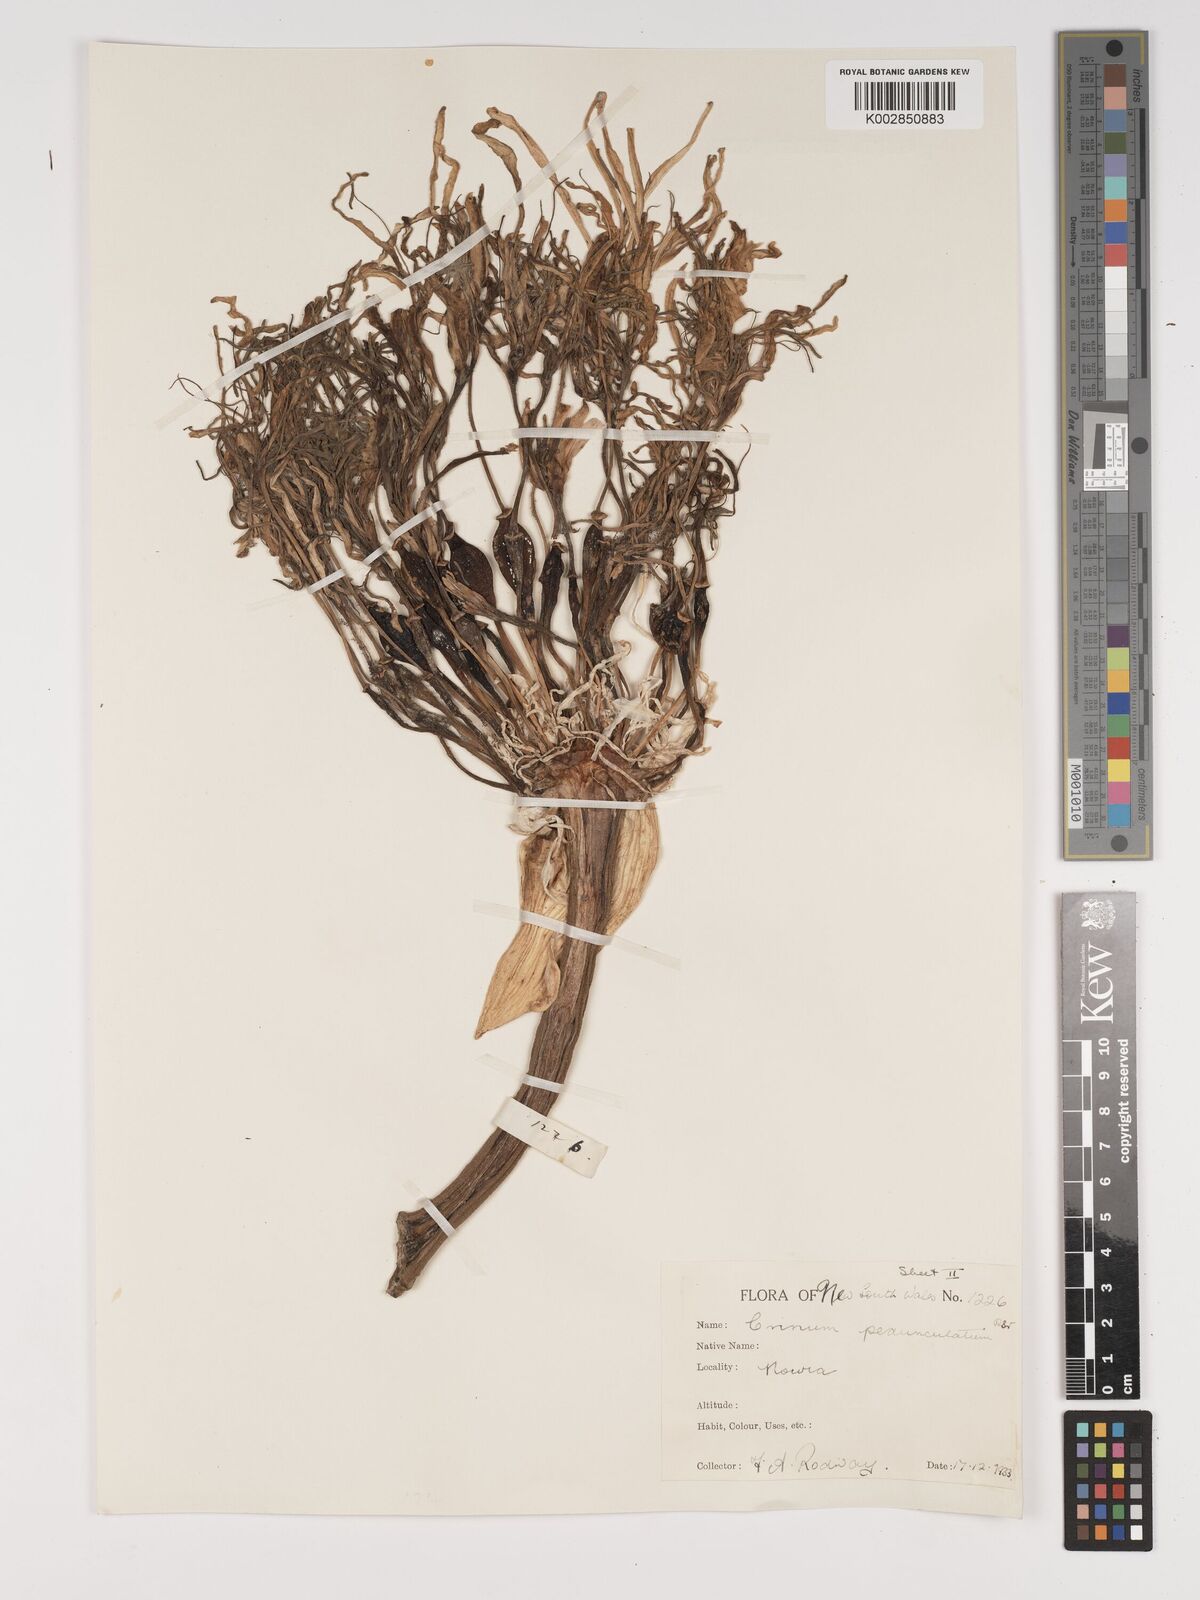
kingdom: Plantae
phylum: Tracheophyta
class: Liliopsida
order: Asparagales
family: Amaryllidaceae
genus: Crinum
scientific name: Crinum asiaticum
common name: Poisonbulb
